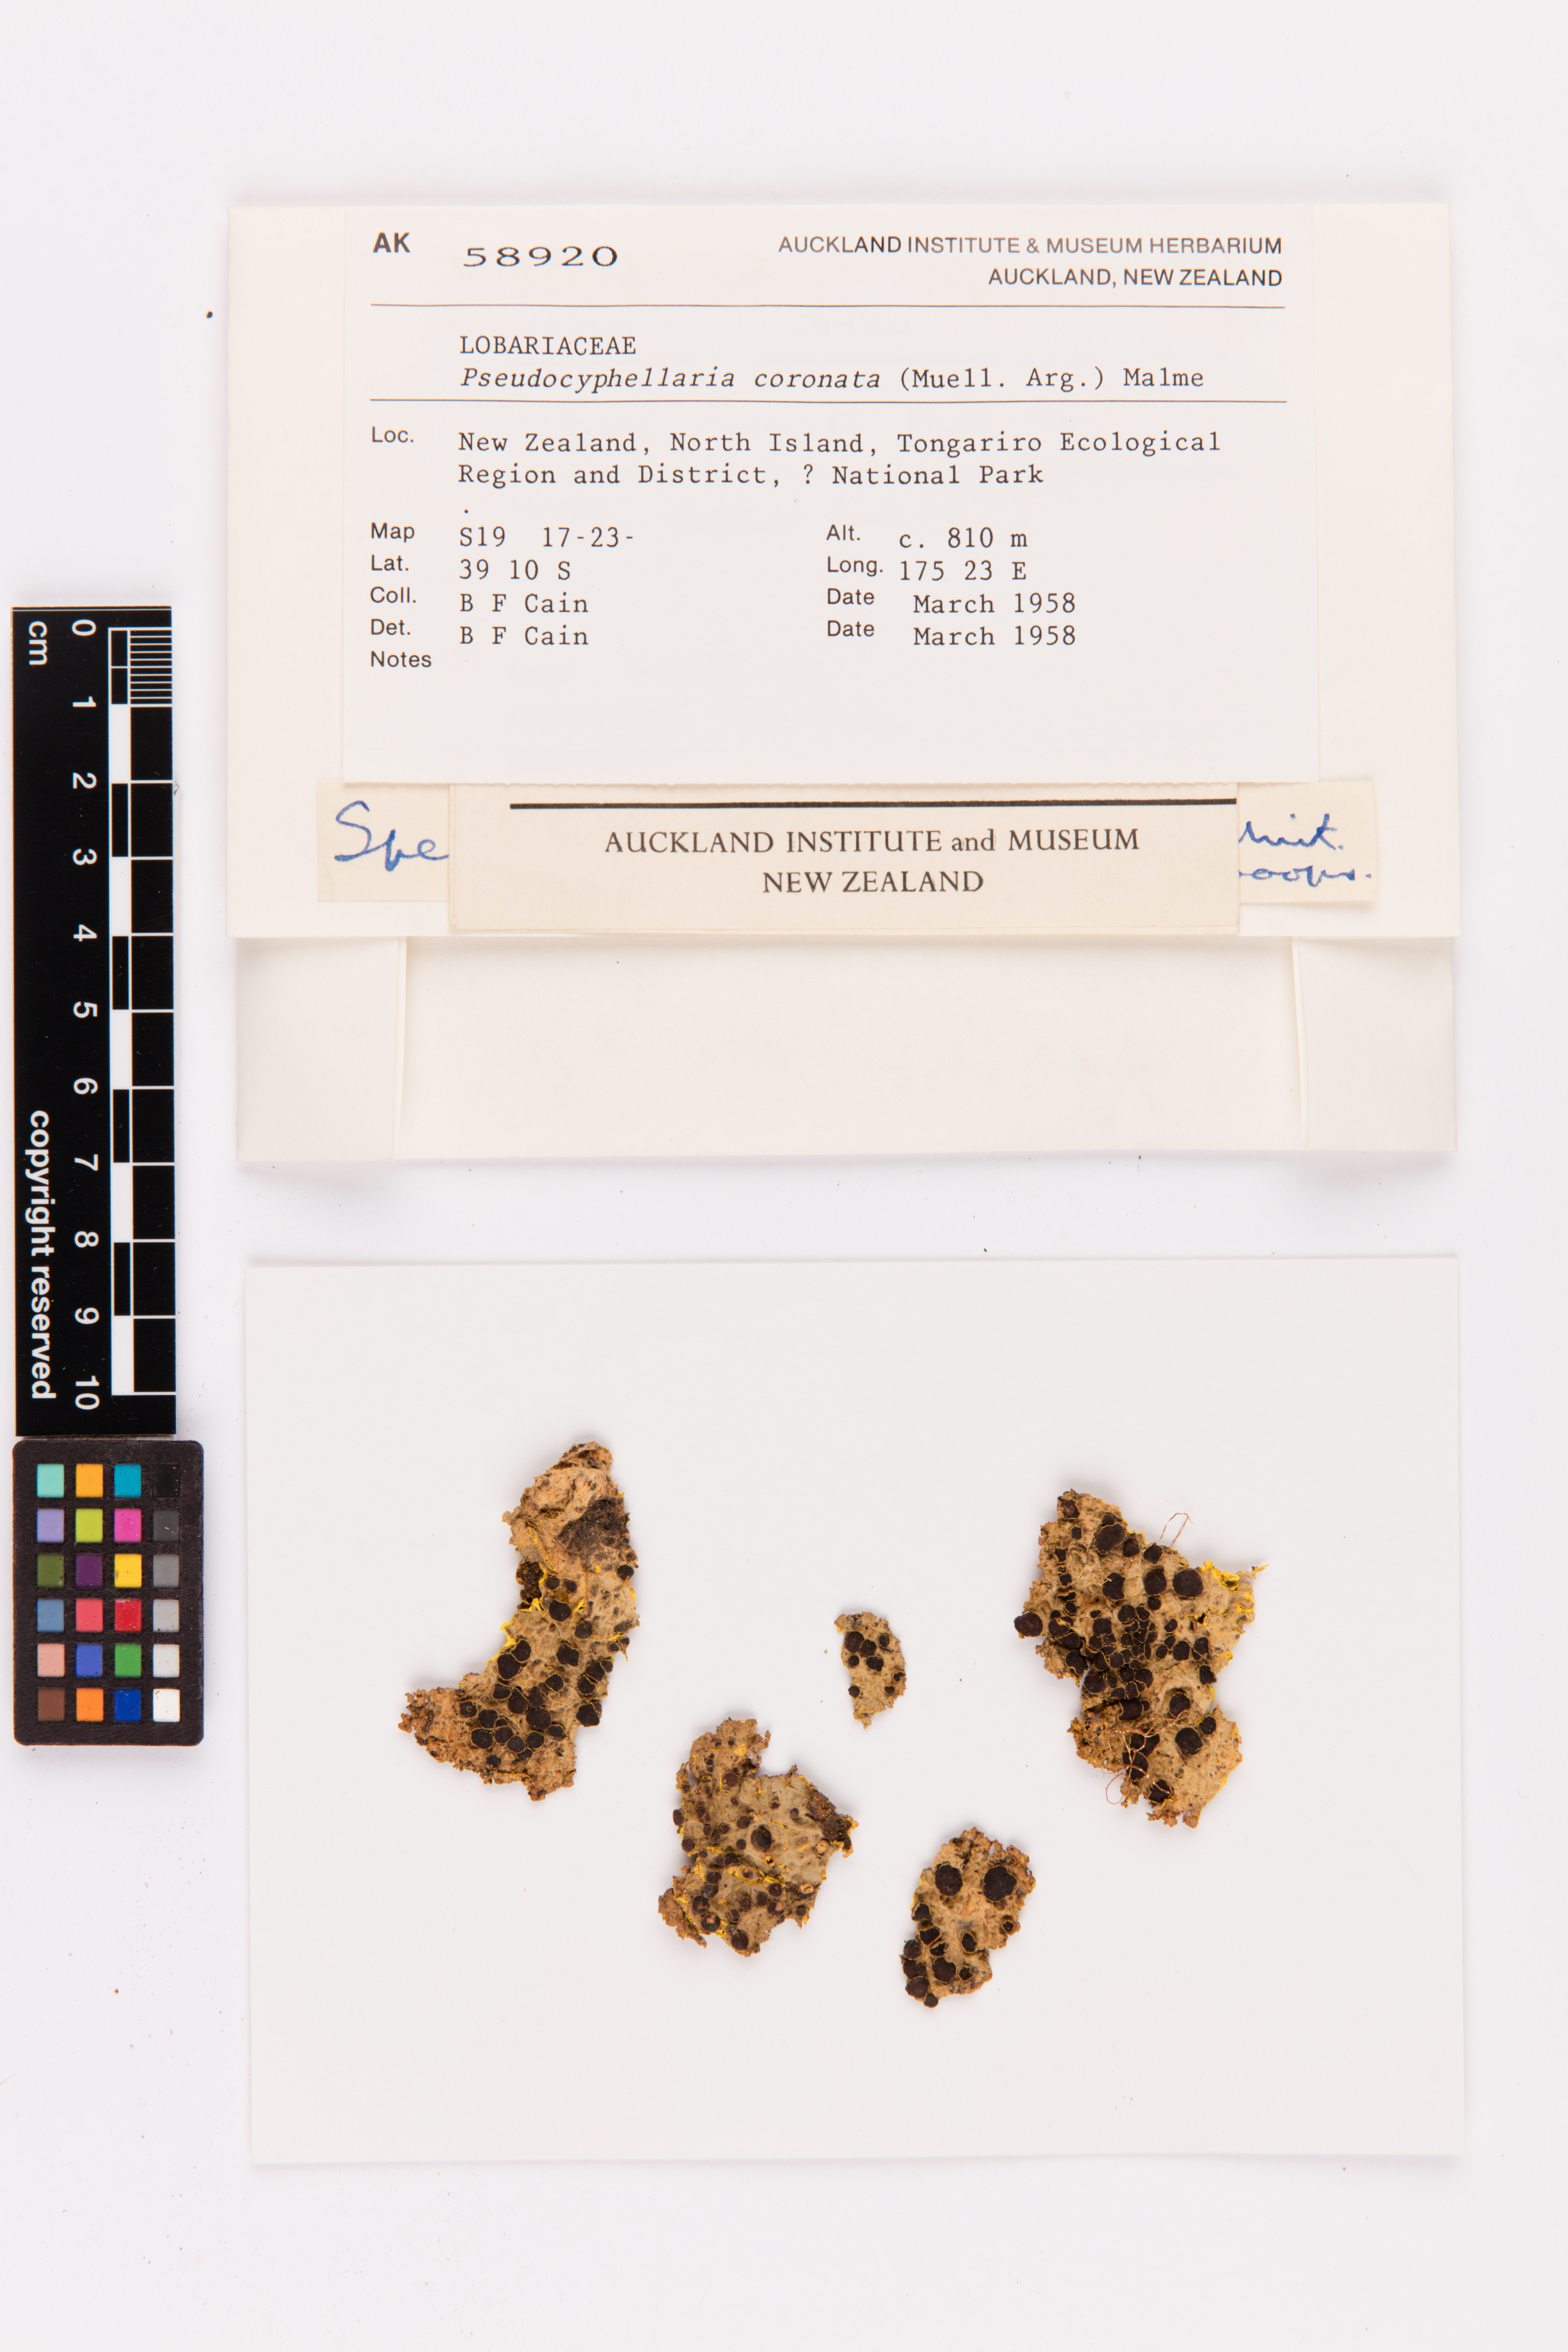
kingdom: Fungi
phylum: Ascomycota
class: Lecanoromycetes
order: Peltigerales
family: Lobariaceae
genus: Yarrumia
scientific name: Yarrumia coronata
